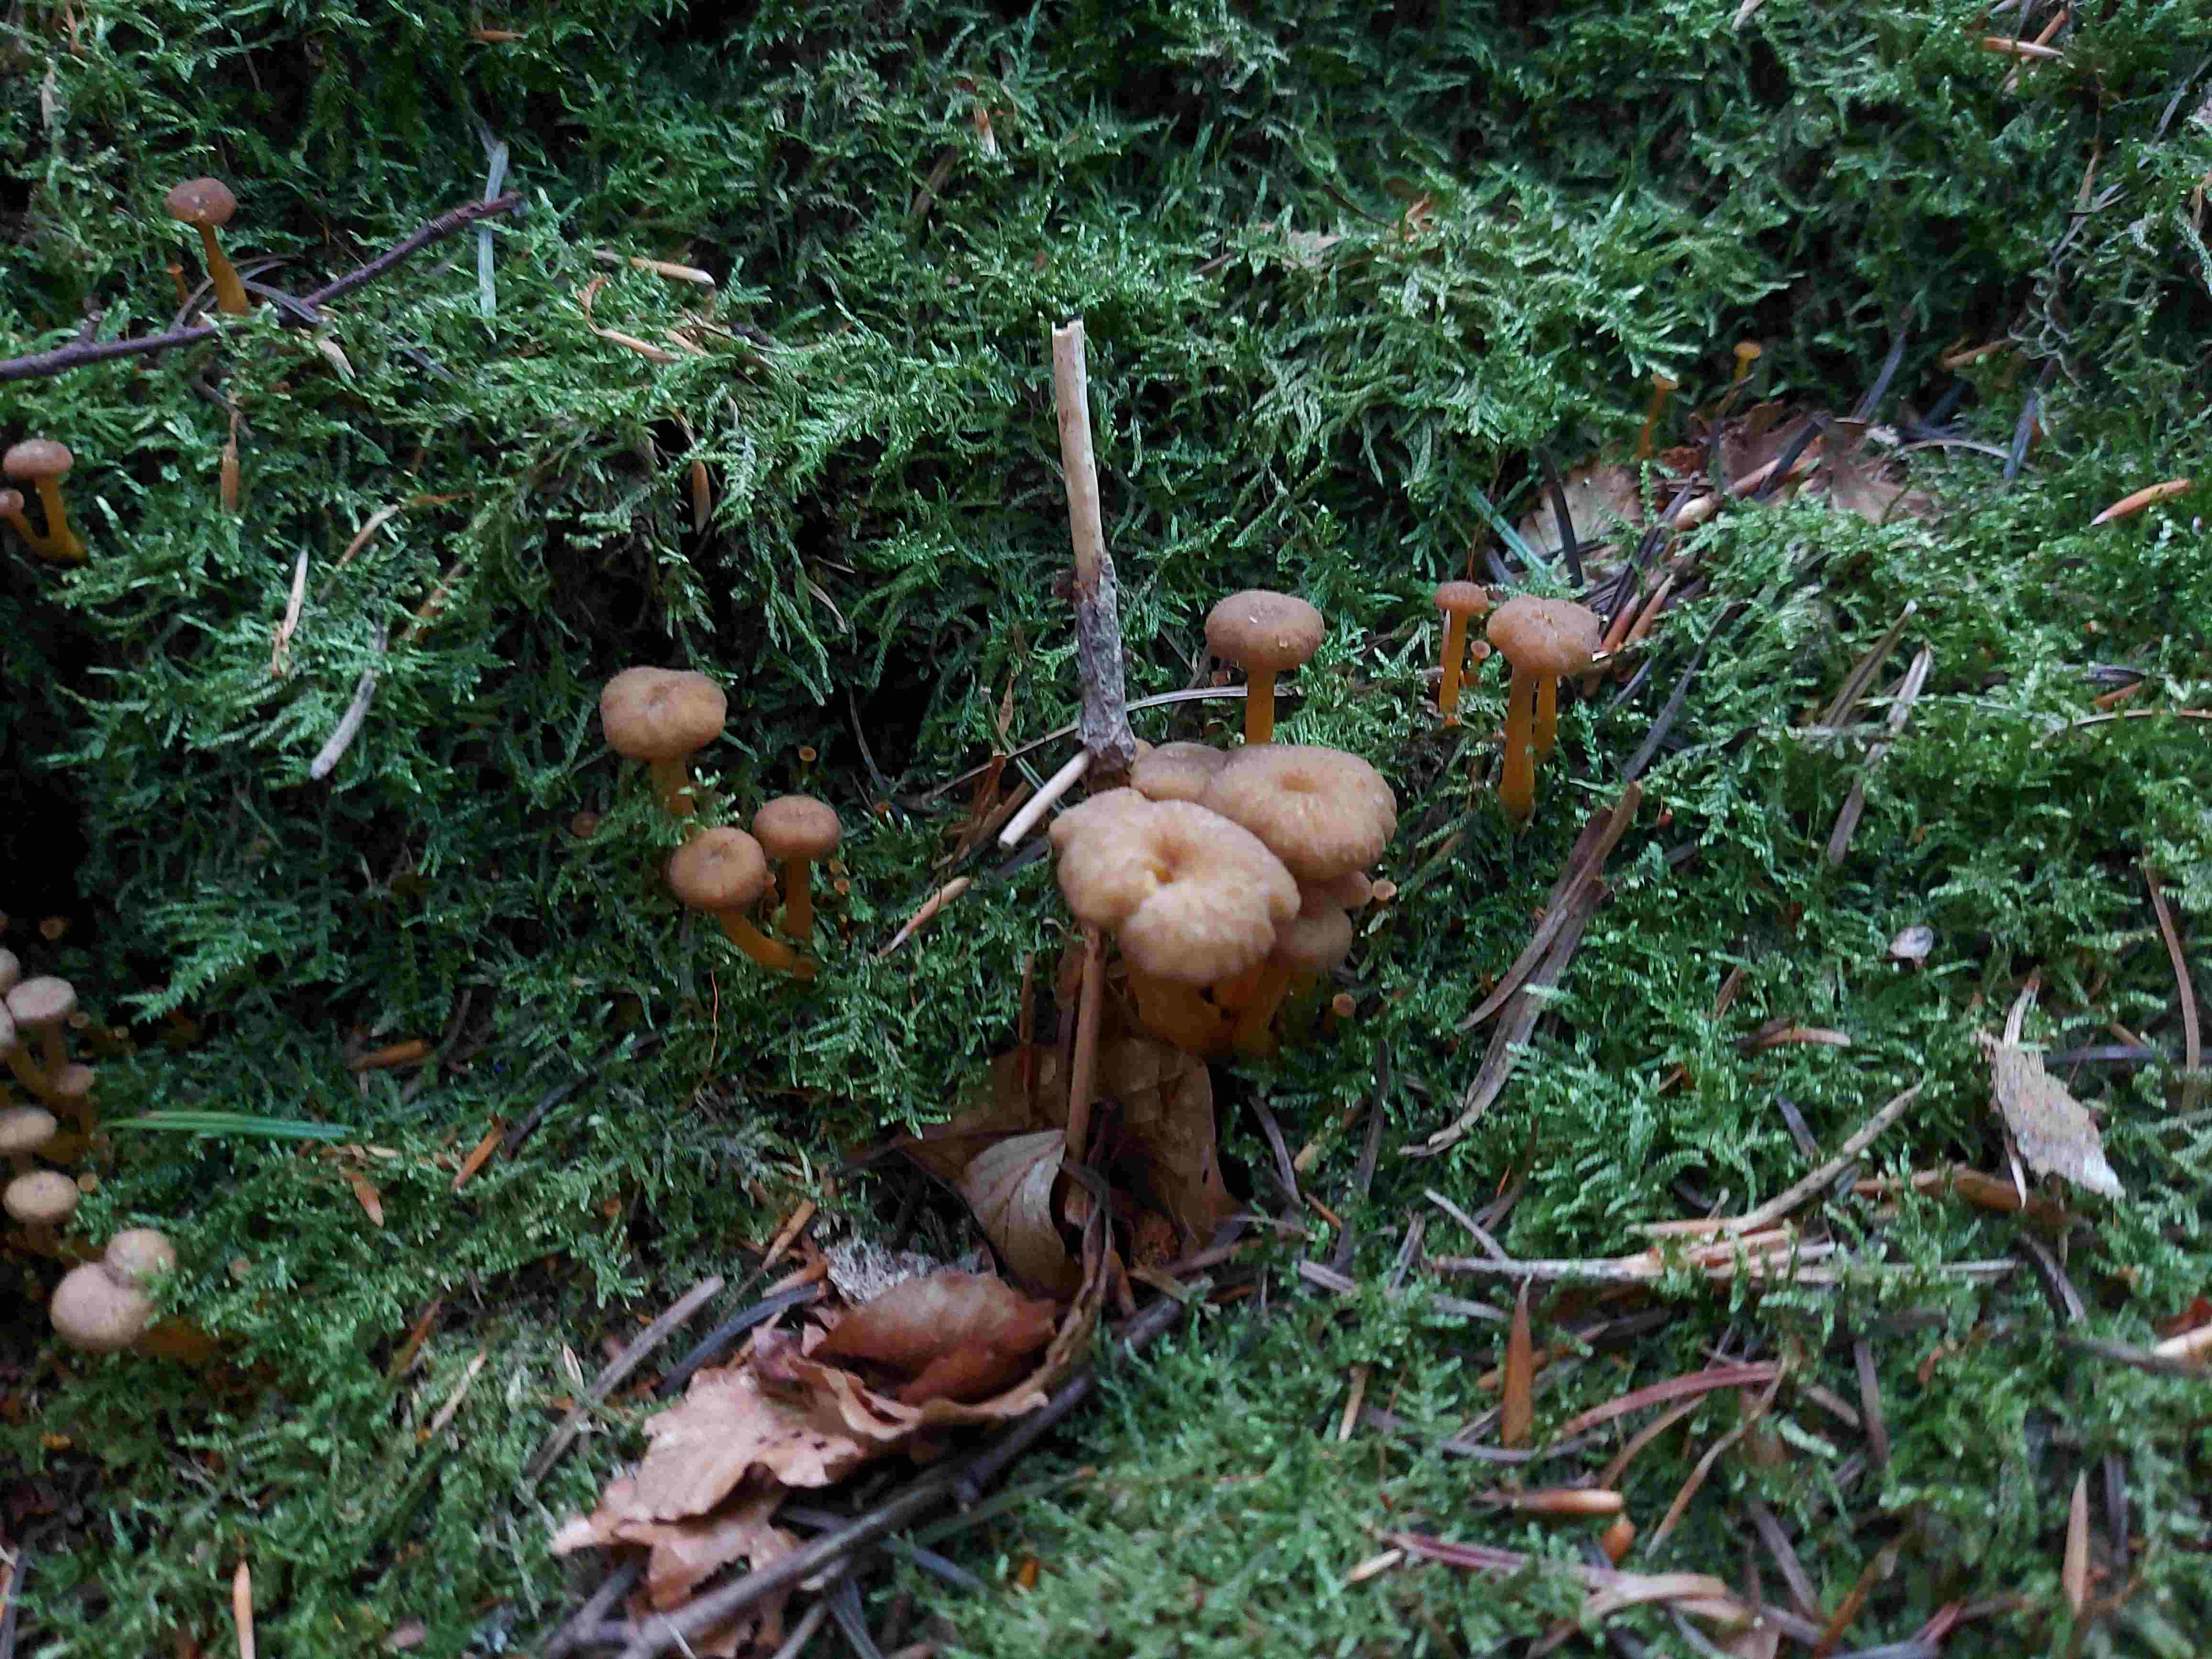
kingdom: Fungi
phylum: Basidiomycota
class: Agaricomycetes
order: Cantharellales
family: Hydnaceae
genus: Craterellus
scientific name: Craterellus tubaeformis
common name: tragt-kantarel
